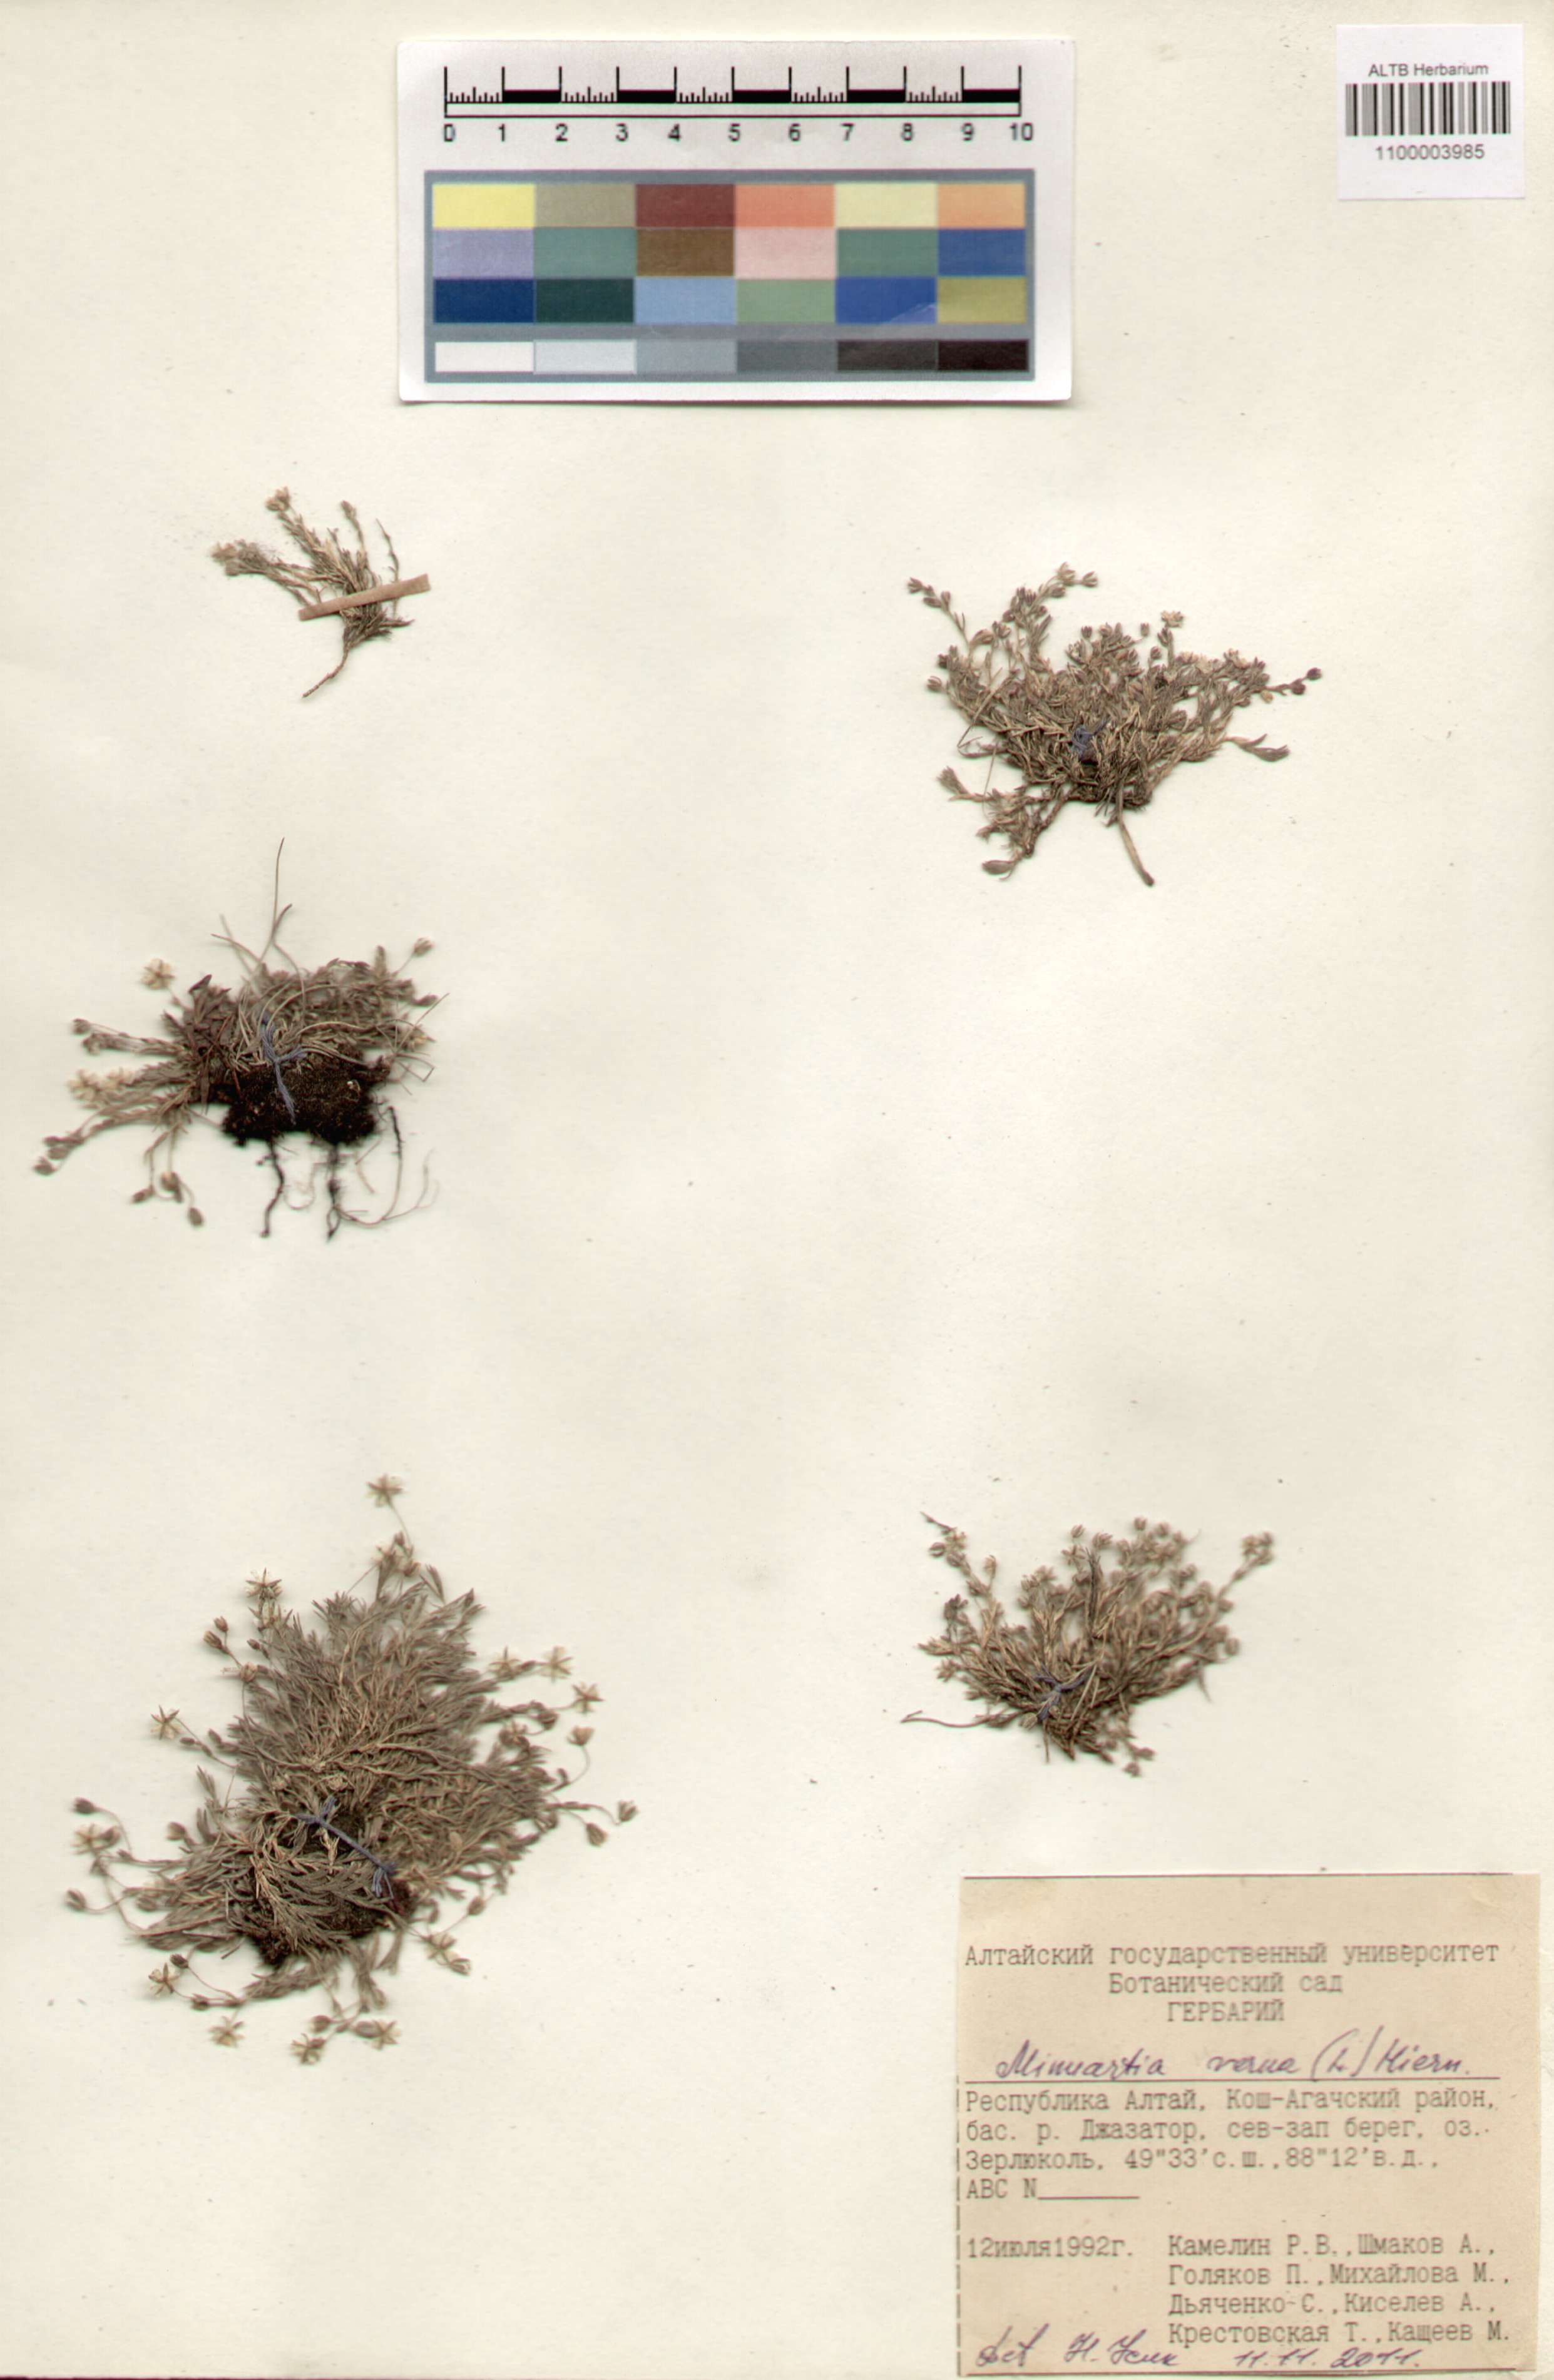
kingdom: Plantae
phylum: Tracheophyta
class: Magnoliopsida
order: Caryophyllales
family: Caryophyllaceae
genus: Sabulina
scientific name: Sabulina verna
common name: Spring sandwort
